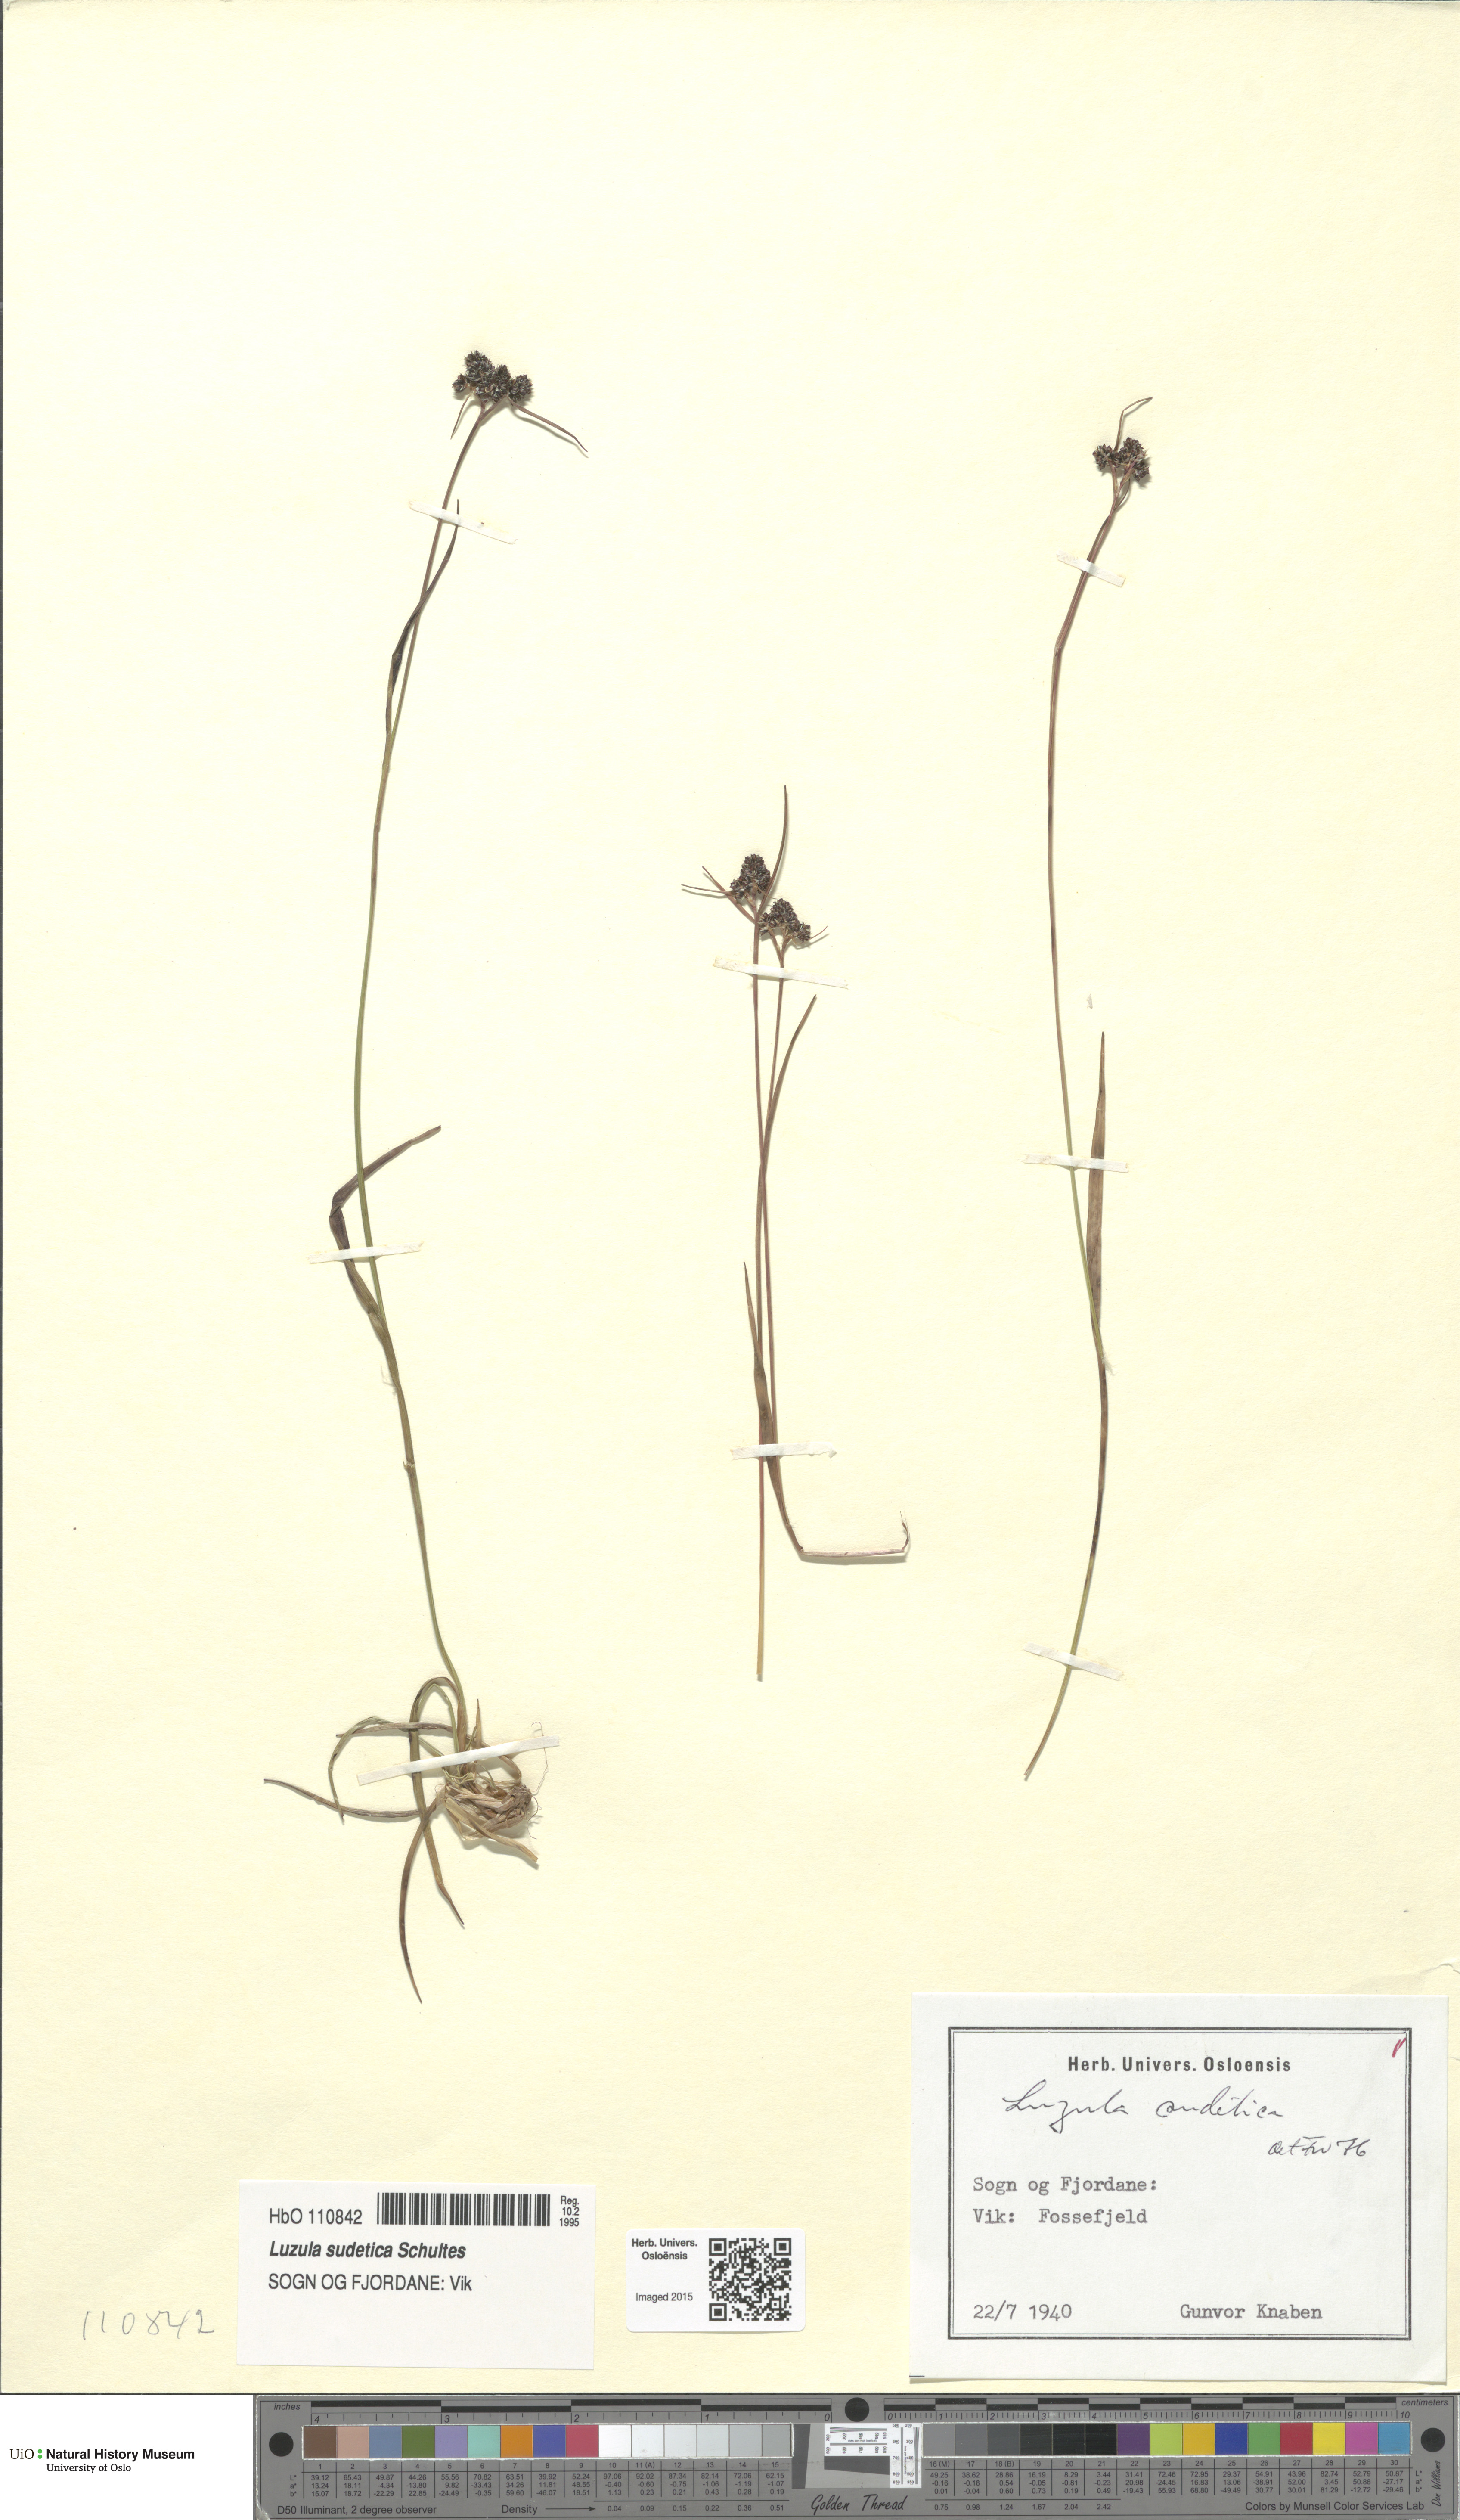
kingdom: Plantae
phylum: Tracheophyta
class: Liliopsida
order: Poales
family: Juncaceae
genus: Luzula
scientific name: Luzula sudetica
